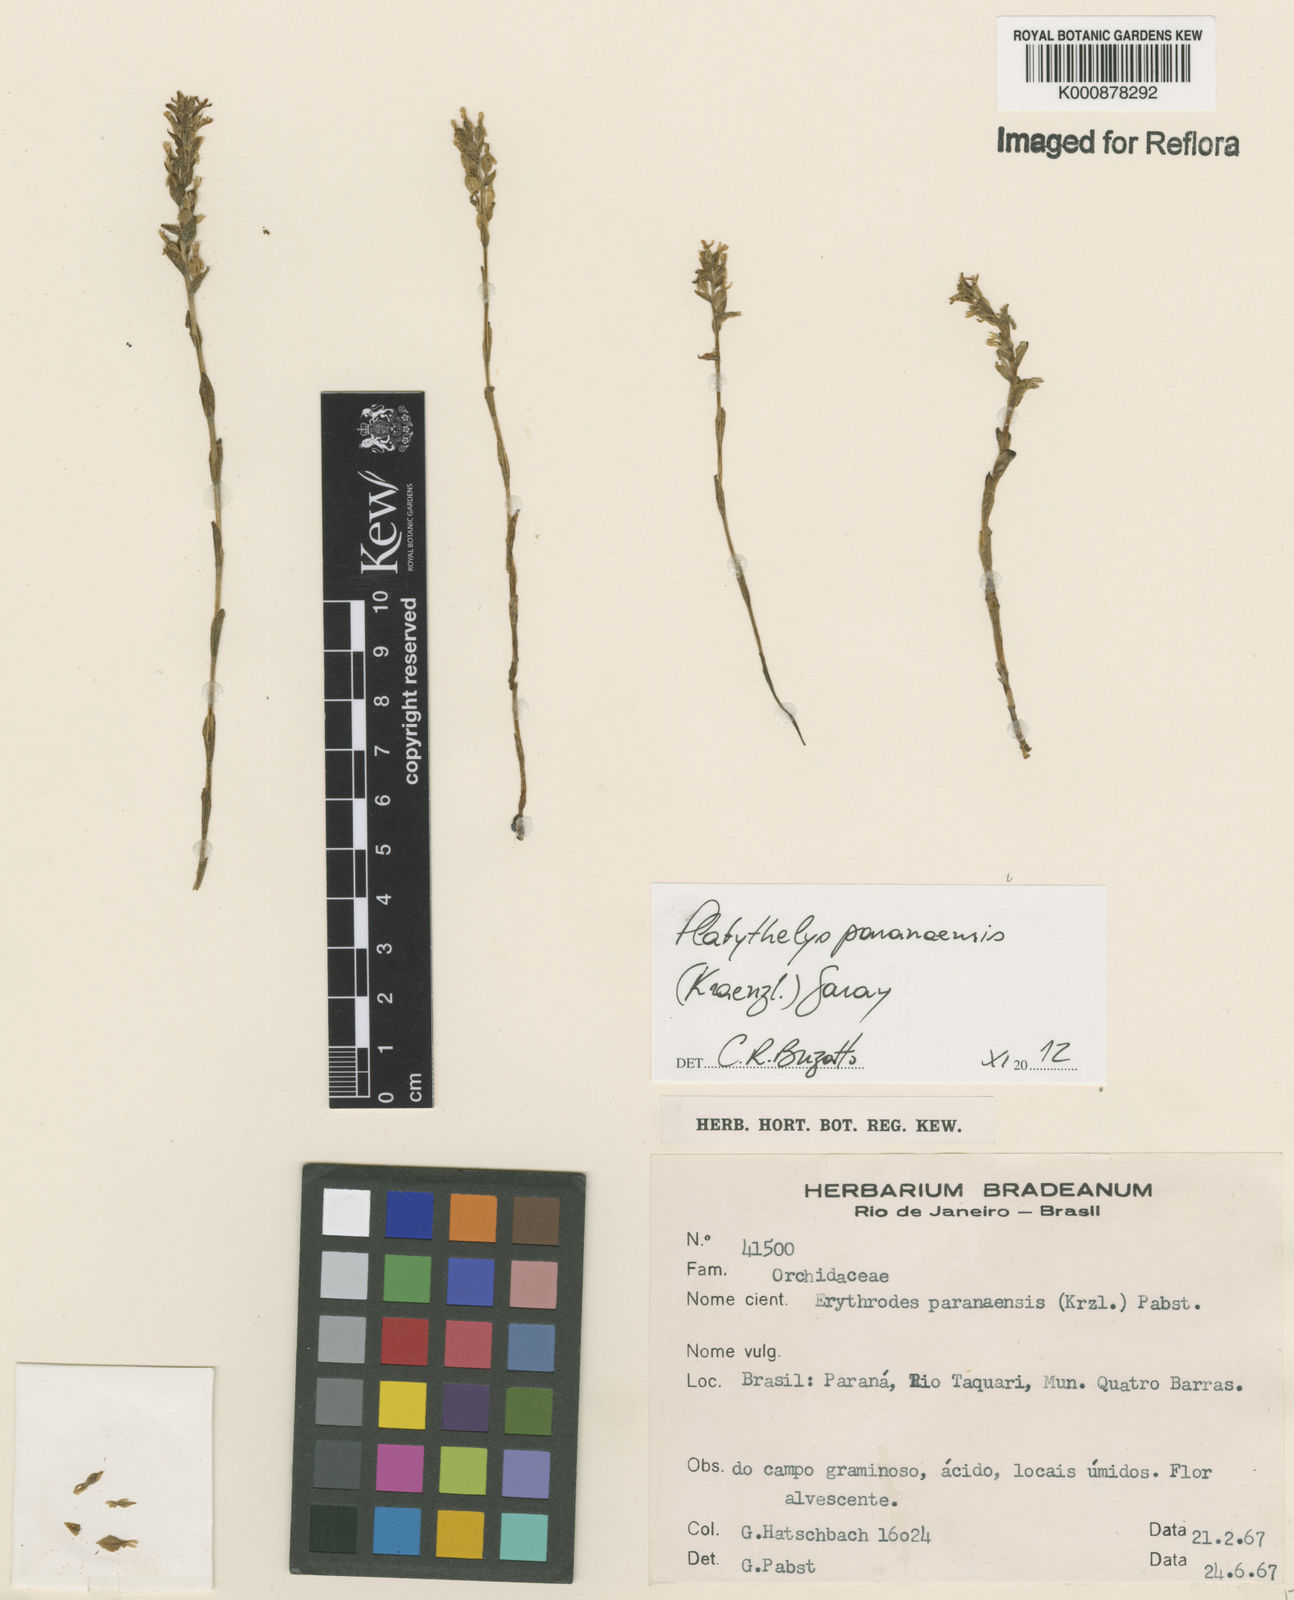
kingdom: Plantae
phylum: Tracheophyta
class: Liliopsida
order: Asparagales
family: Orchidaceae
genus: Aspidogyne
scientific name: Aspidogyne pedicellata
